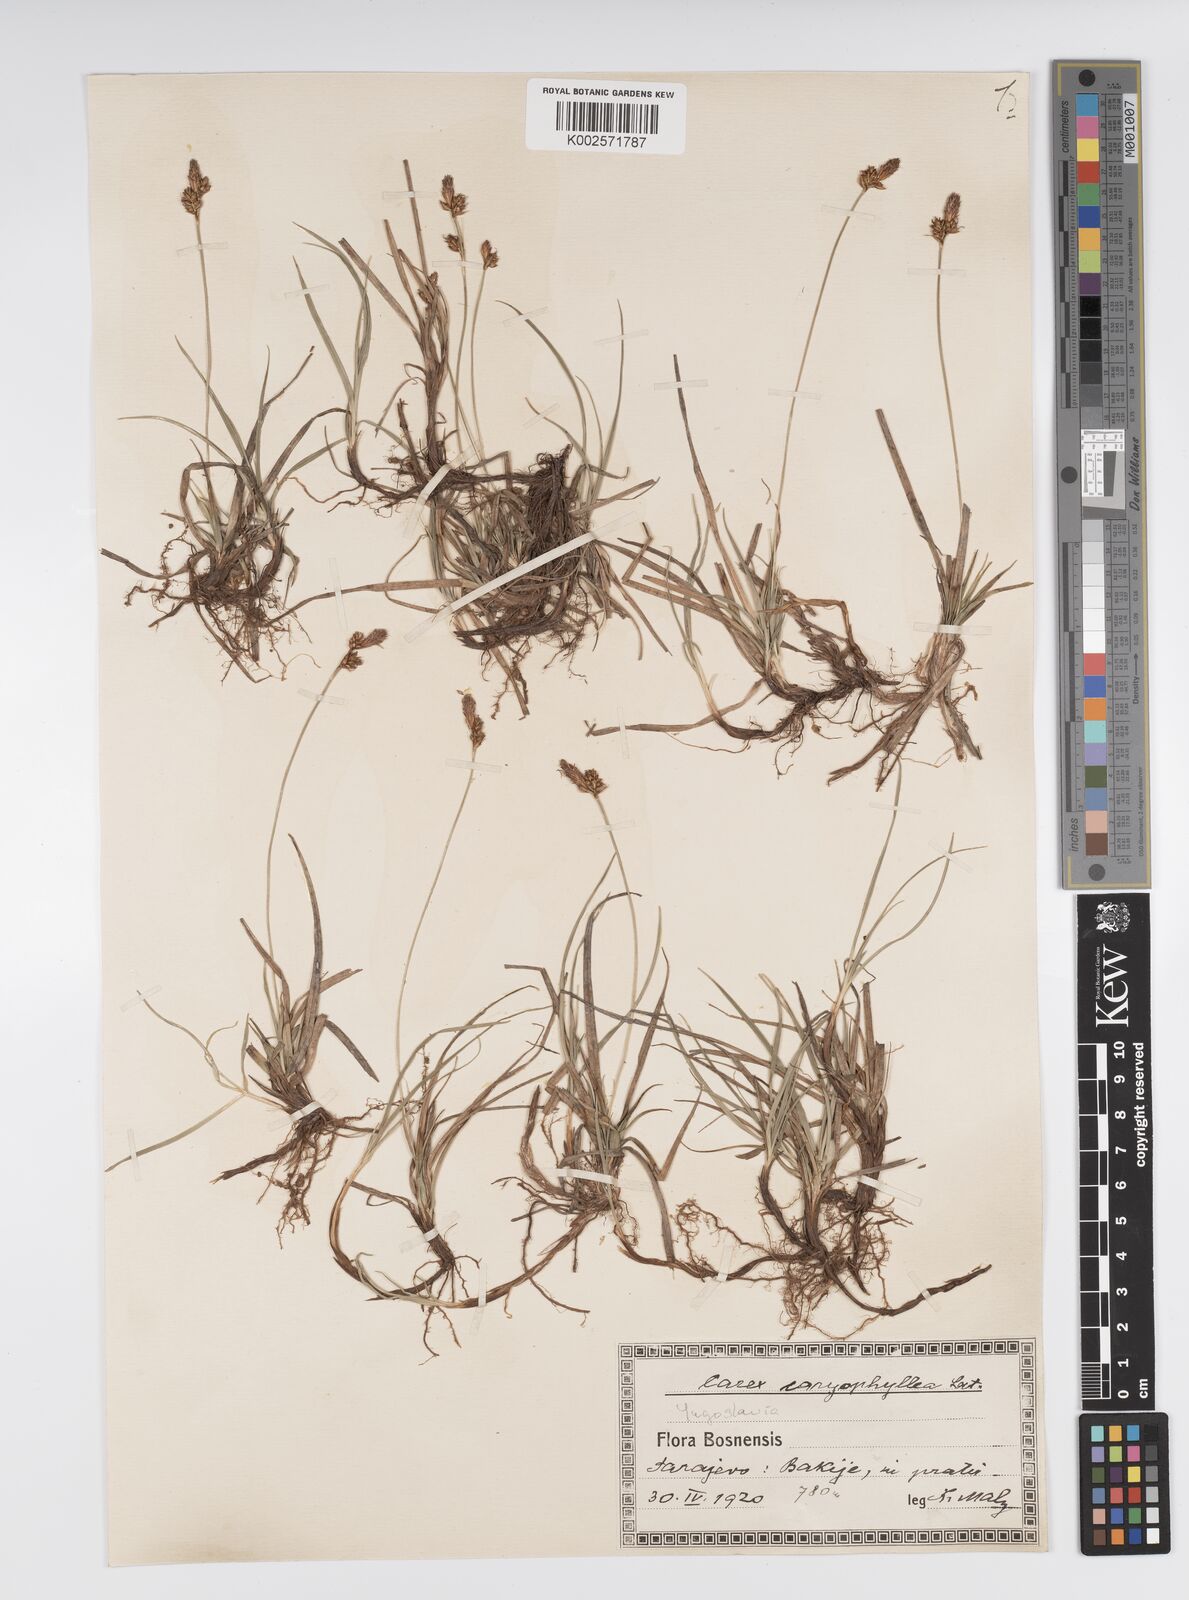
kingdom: Plantae
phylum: Tracheophyta
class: Liliopsida
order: Poales
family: Cyperaceae
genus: Carex
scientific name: Carex caryophyllea
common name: Spring sedge
